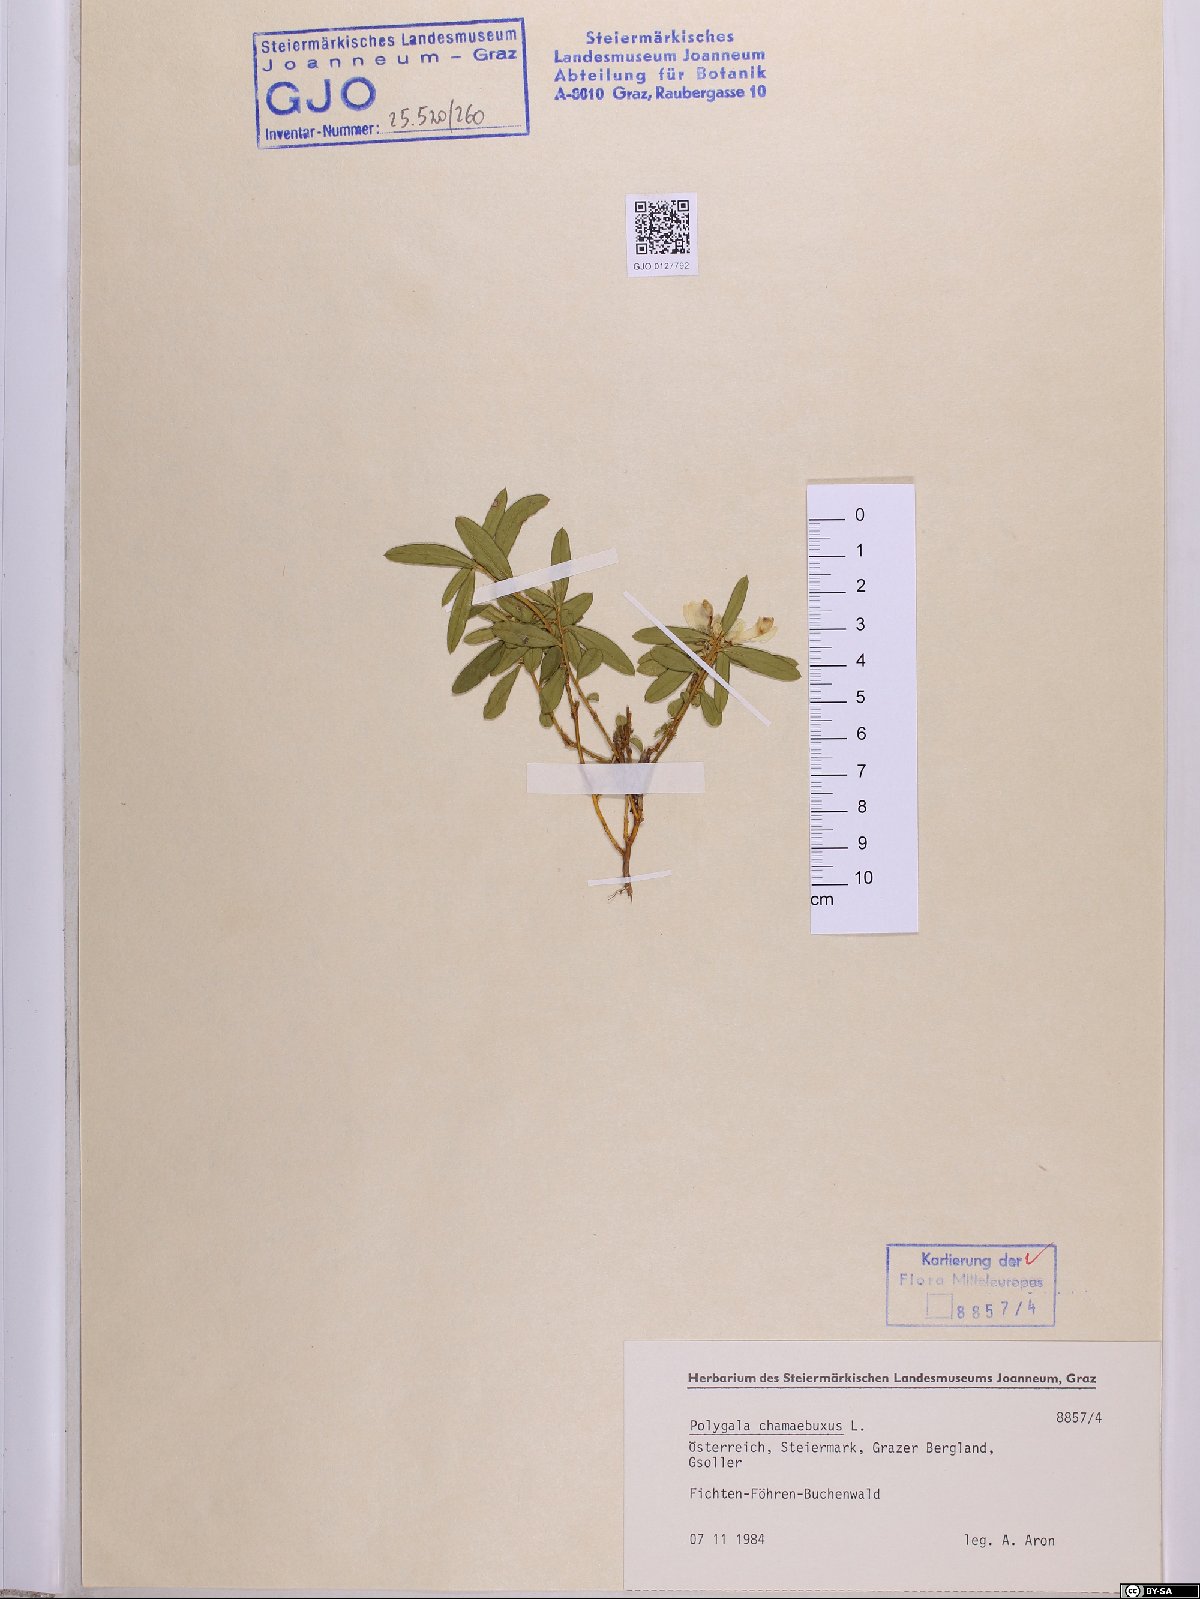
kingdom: Plantae
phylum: Tracheophyta
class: Magnoliopsida
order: Fabales
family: Polygalaceae
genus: Polygaloides
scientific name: Polygaloides chamaebuxus
